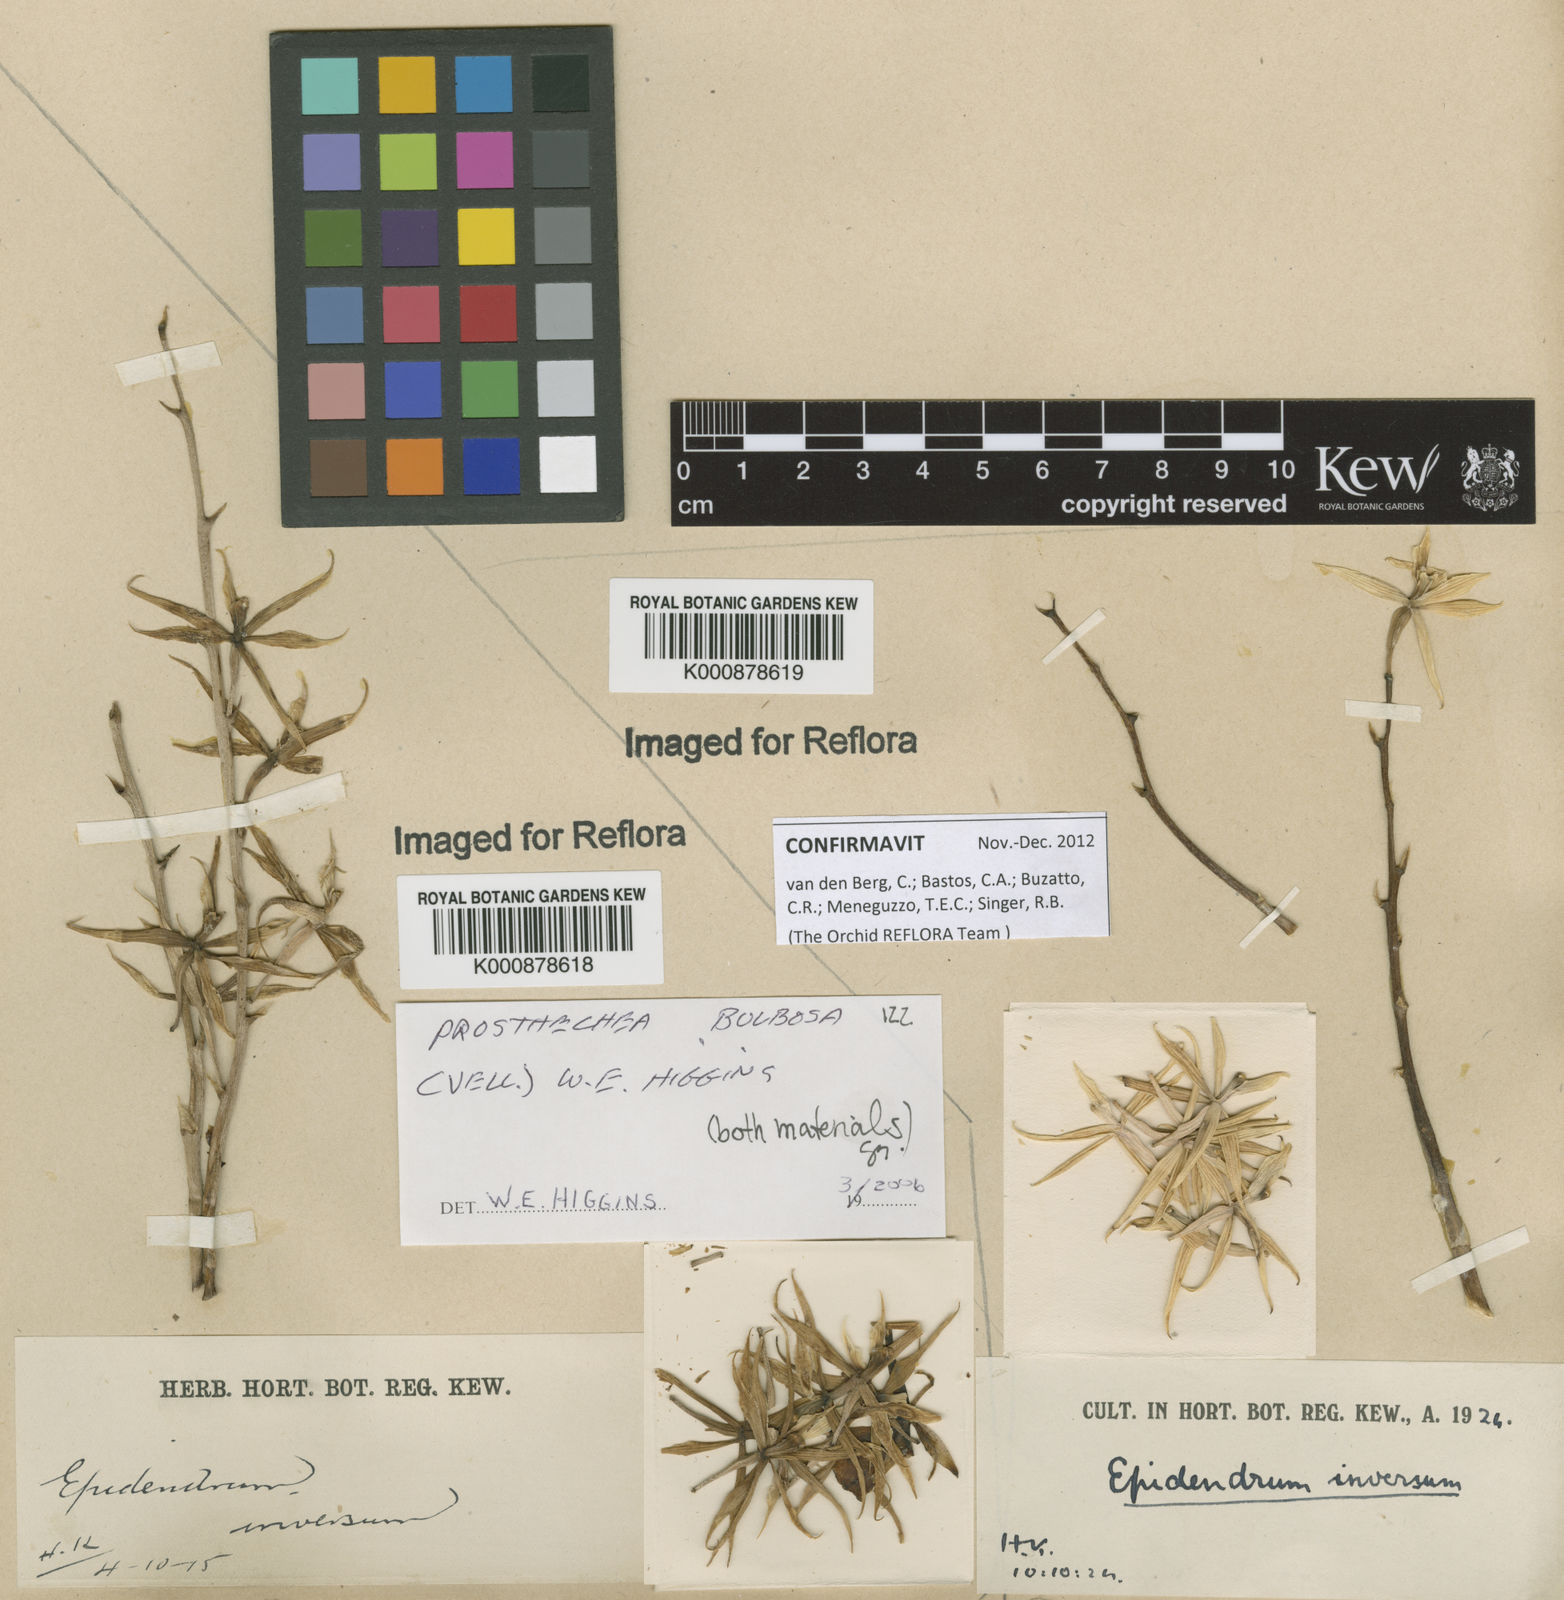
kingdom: Plantae
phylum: Tracheophyta
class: Liliopsida
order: Asparagales
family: Orchidaceae
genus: Prosthechea
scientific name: Prosthechea bulbosa
